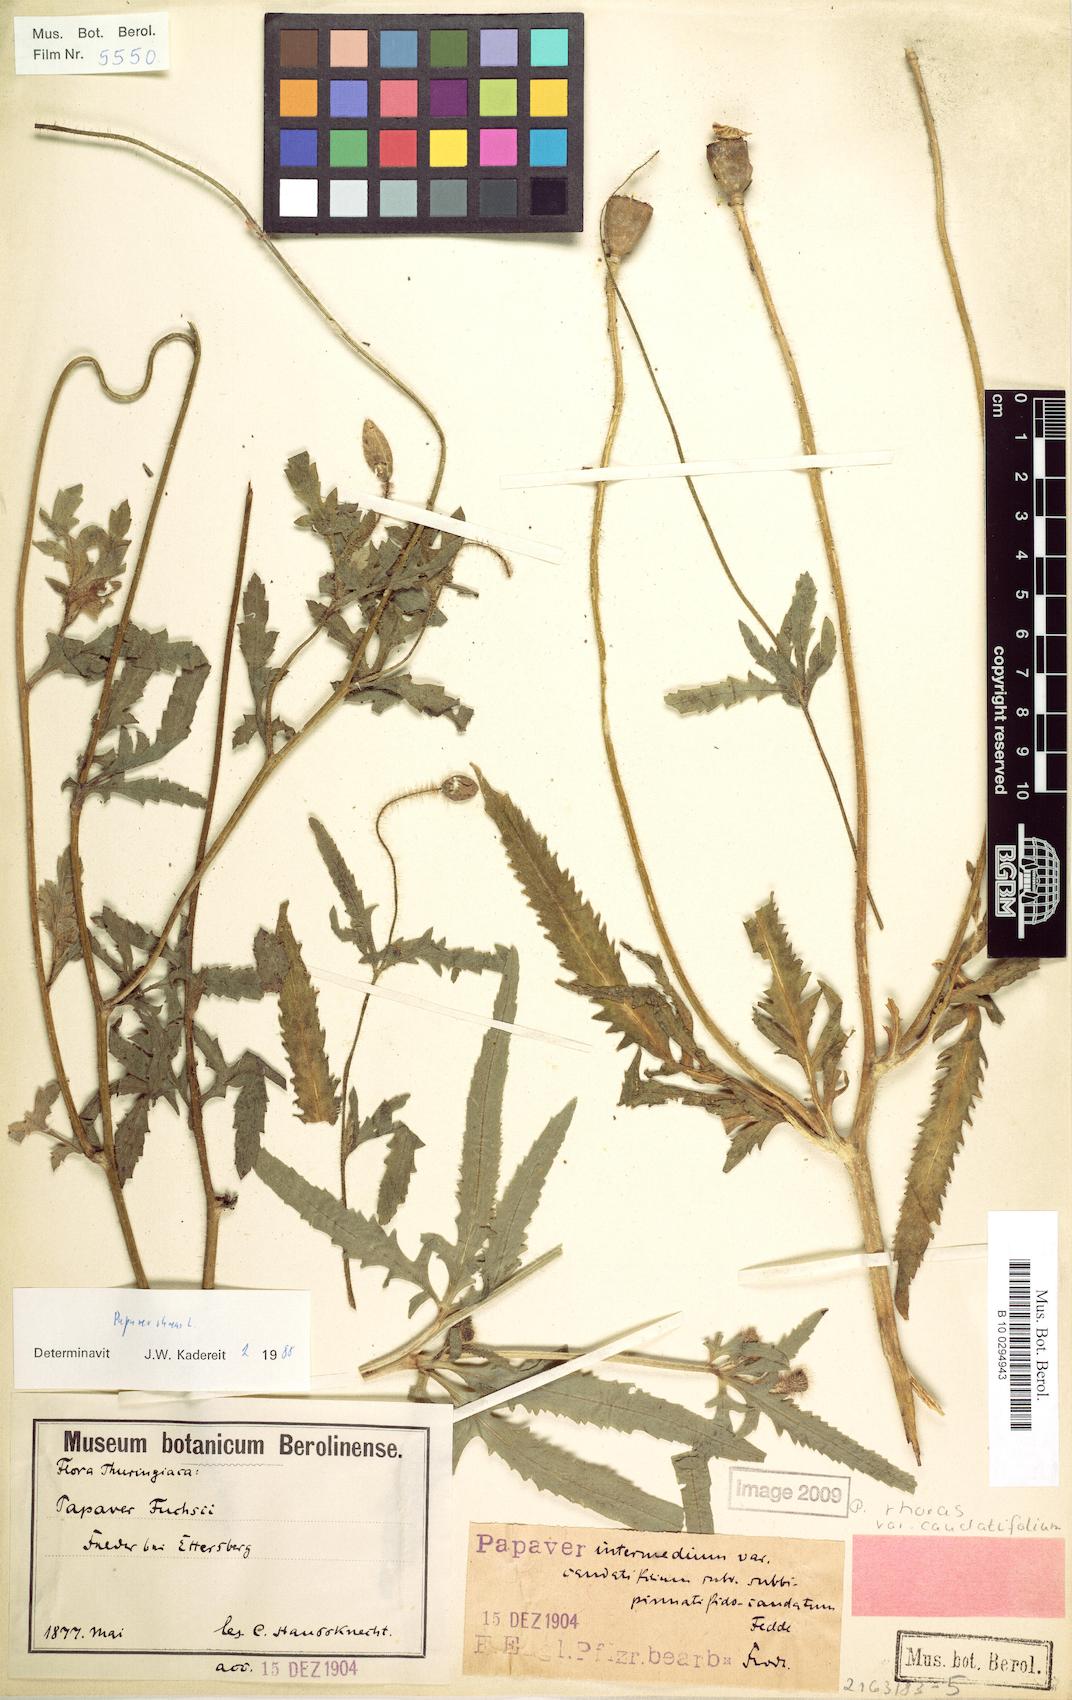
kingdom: Plantae
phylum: Tracheophyta
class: Magnoliopsida
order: Ranunculales
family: Papaveraceae
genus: Papaver
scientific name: Papaver rhoeas
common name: Corn poppy
